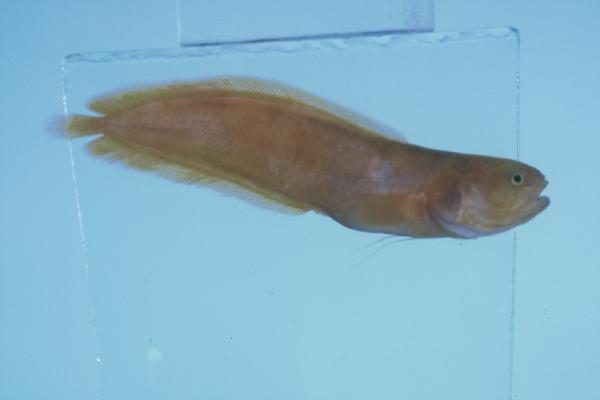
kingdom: Animalia
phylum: Chordata
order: Ophidiiformes
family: Bythitidae
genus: Dinematichthys
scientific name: Dinematichthys iluocoeteoides
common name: Small eye brotula
